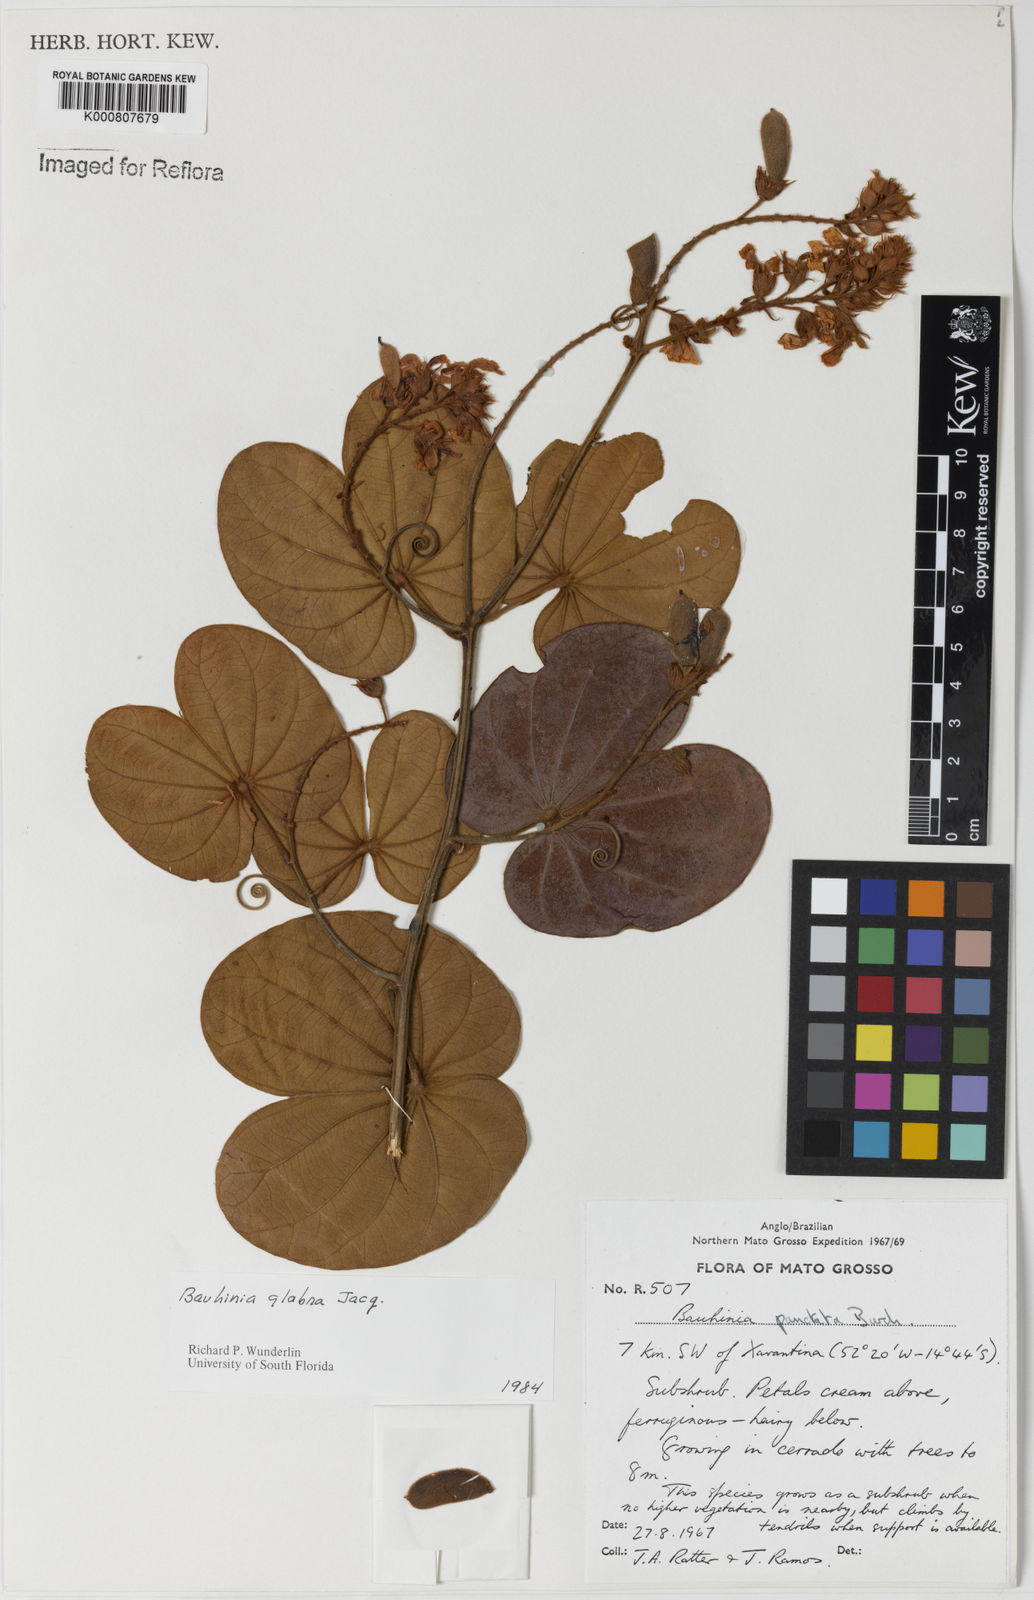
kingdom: Plantae
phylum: Tracheophyta
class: Magnoliopsida
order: Fabales
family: Fabaceae
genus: Schnella
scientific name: Schnella glabra
